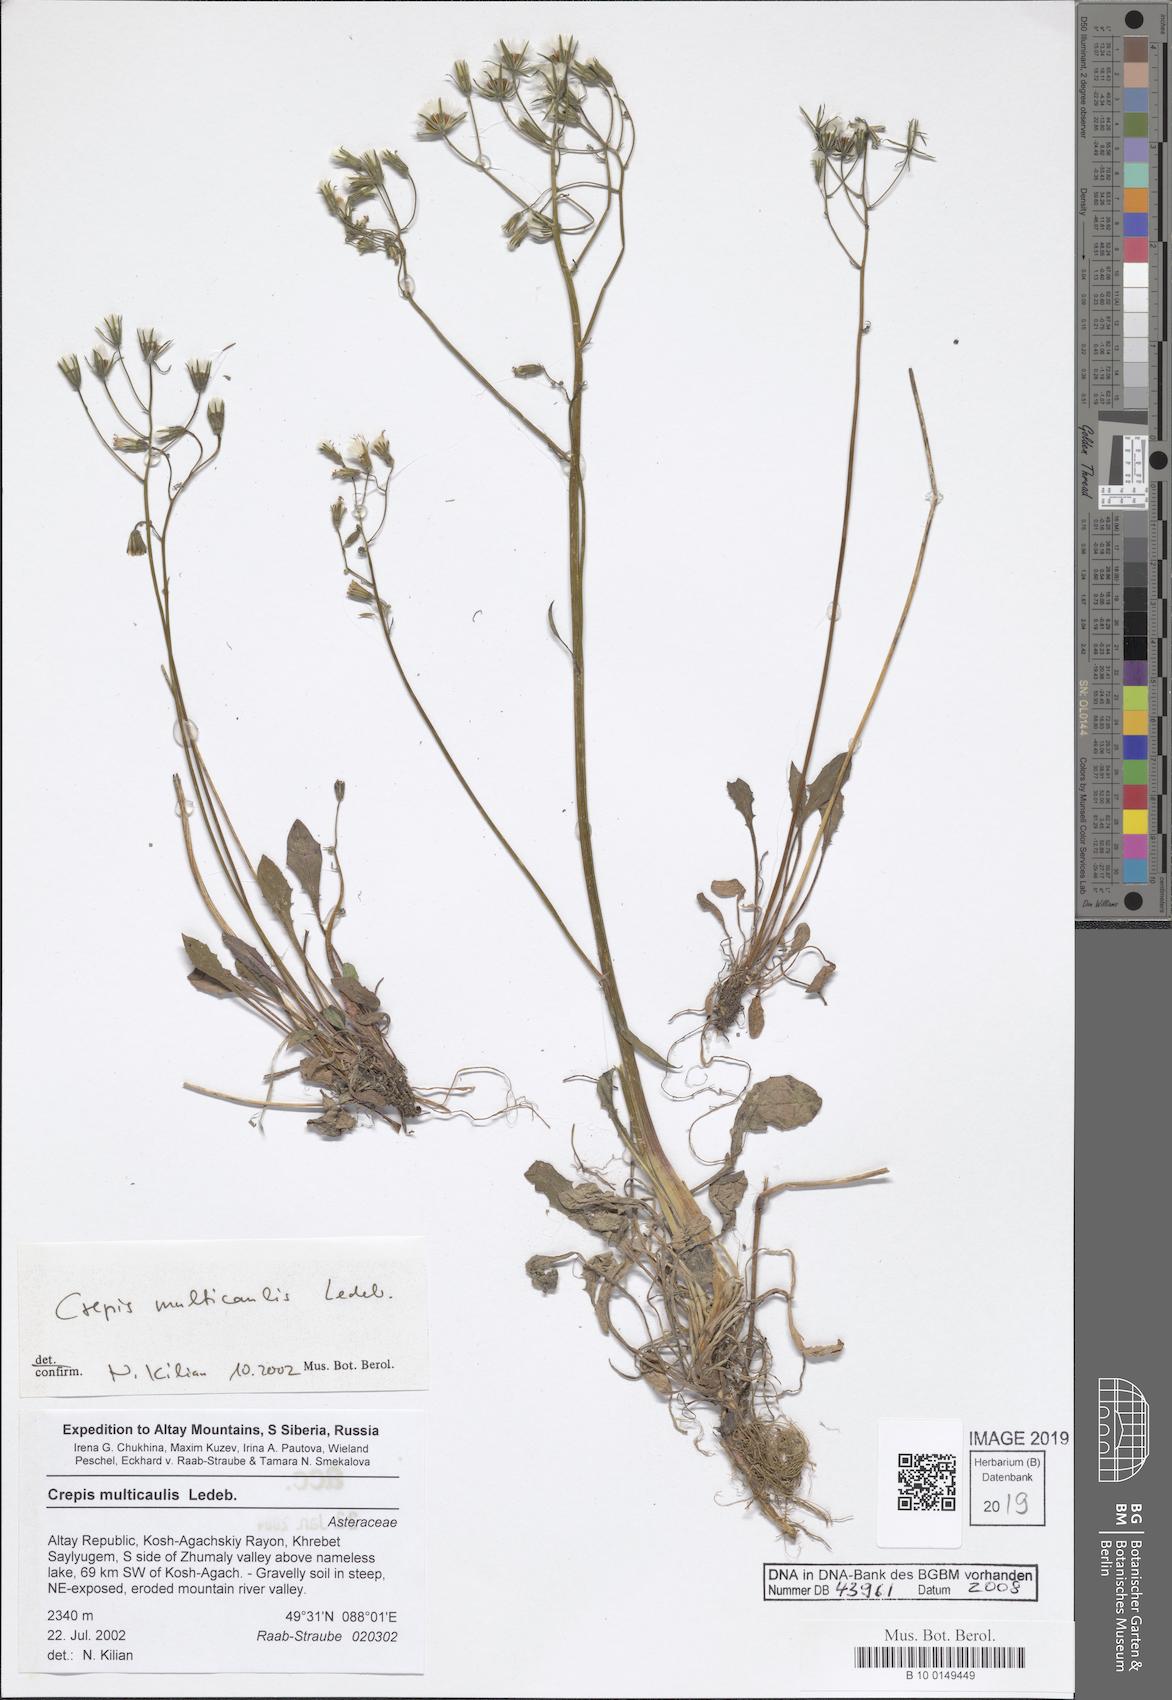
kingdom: Plantae
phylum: Tracheophyta
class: Magnoliopsida
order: Asterales
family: Asteraceae
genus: Crepis
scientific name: Crepis multicaulis
